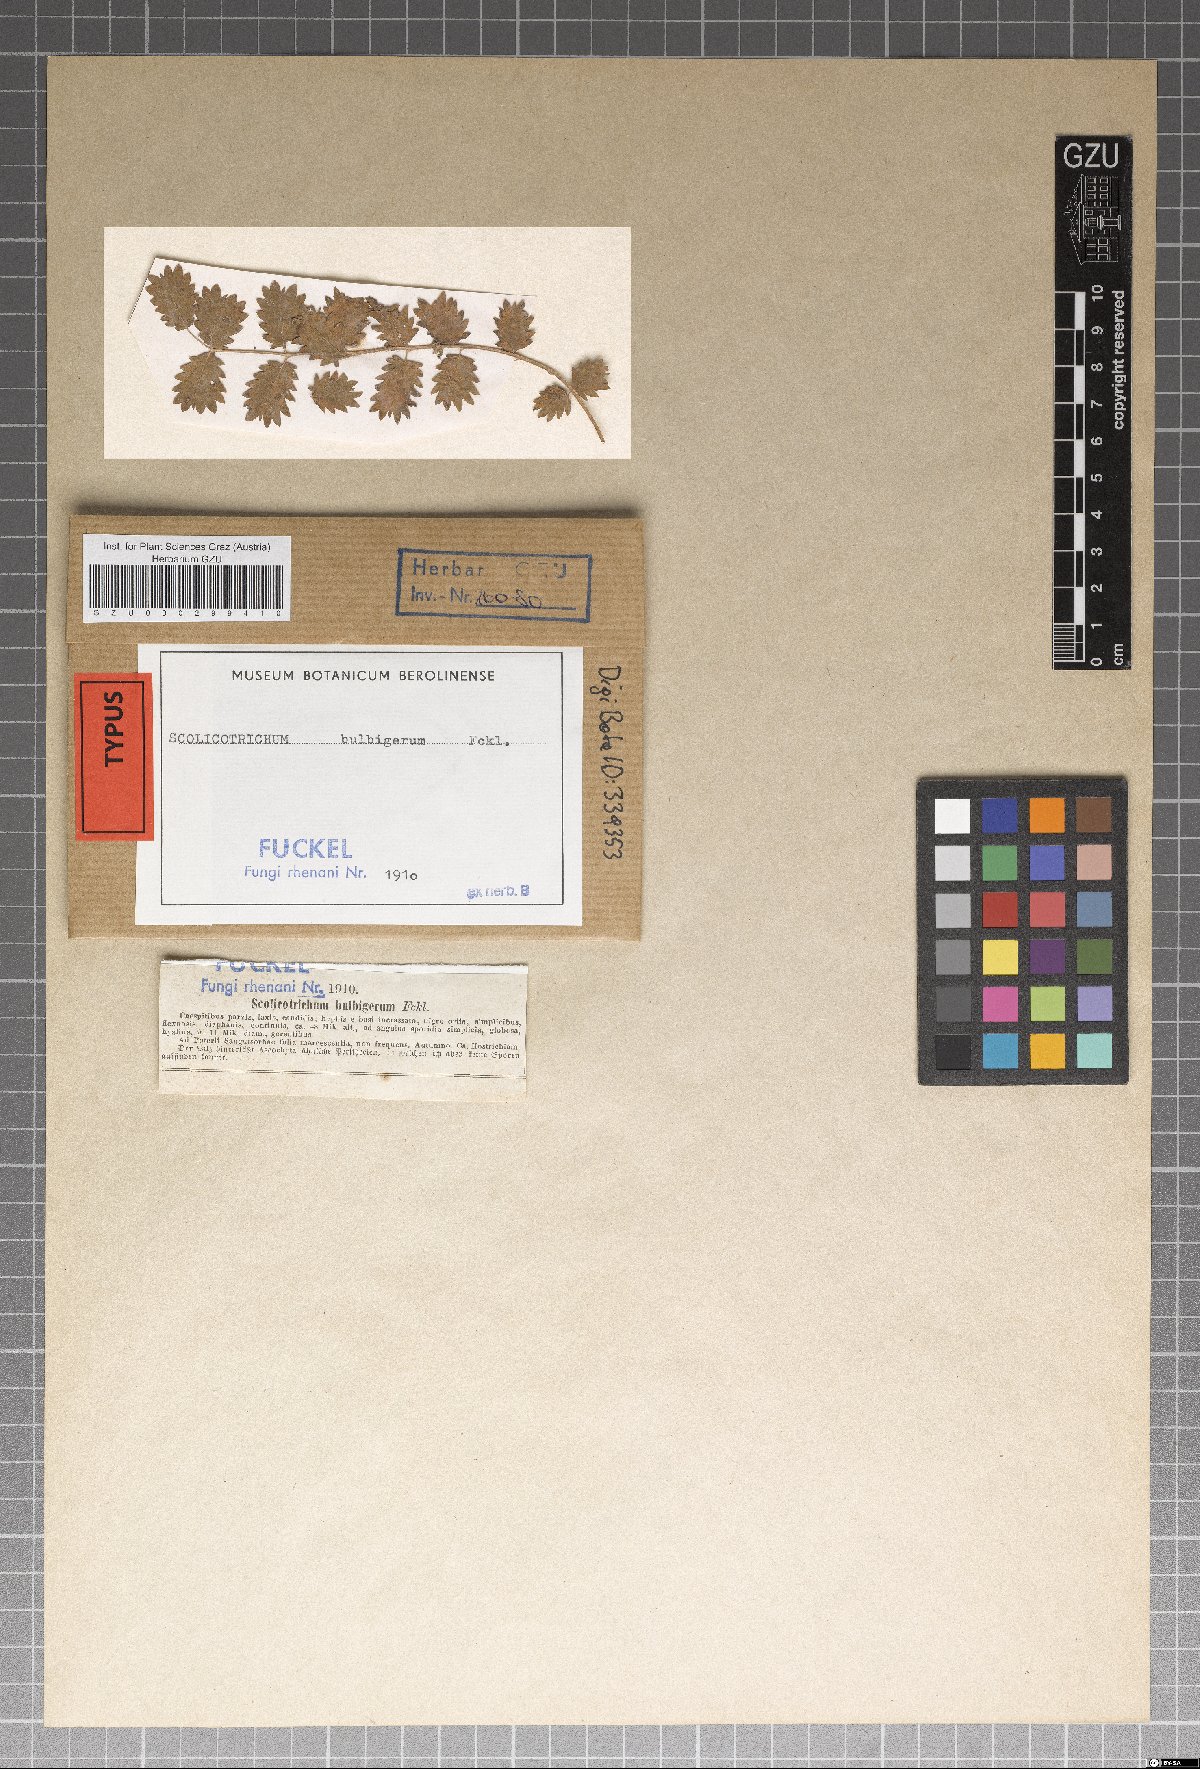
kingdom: Fungi
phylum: Ascomycota
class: Dothideomycetes
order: Mycosphaerellales
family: Mycosphaerellaceae
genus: Phacellium
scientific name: Phacellium bulbigerum
